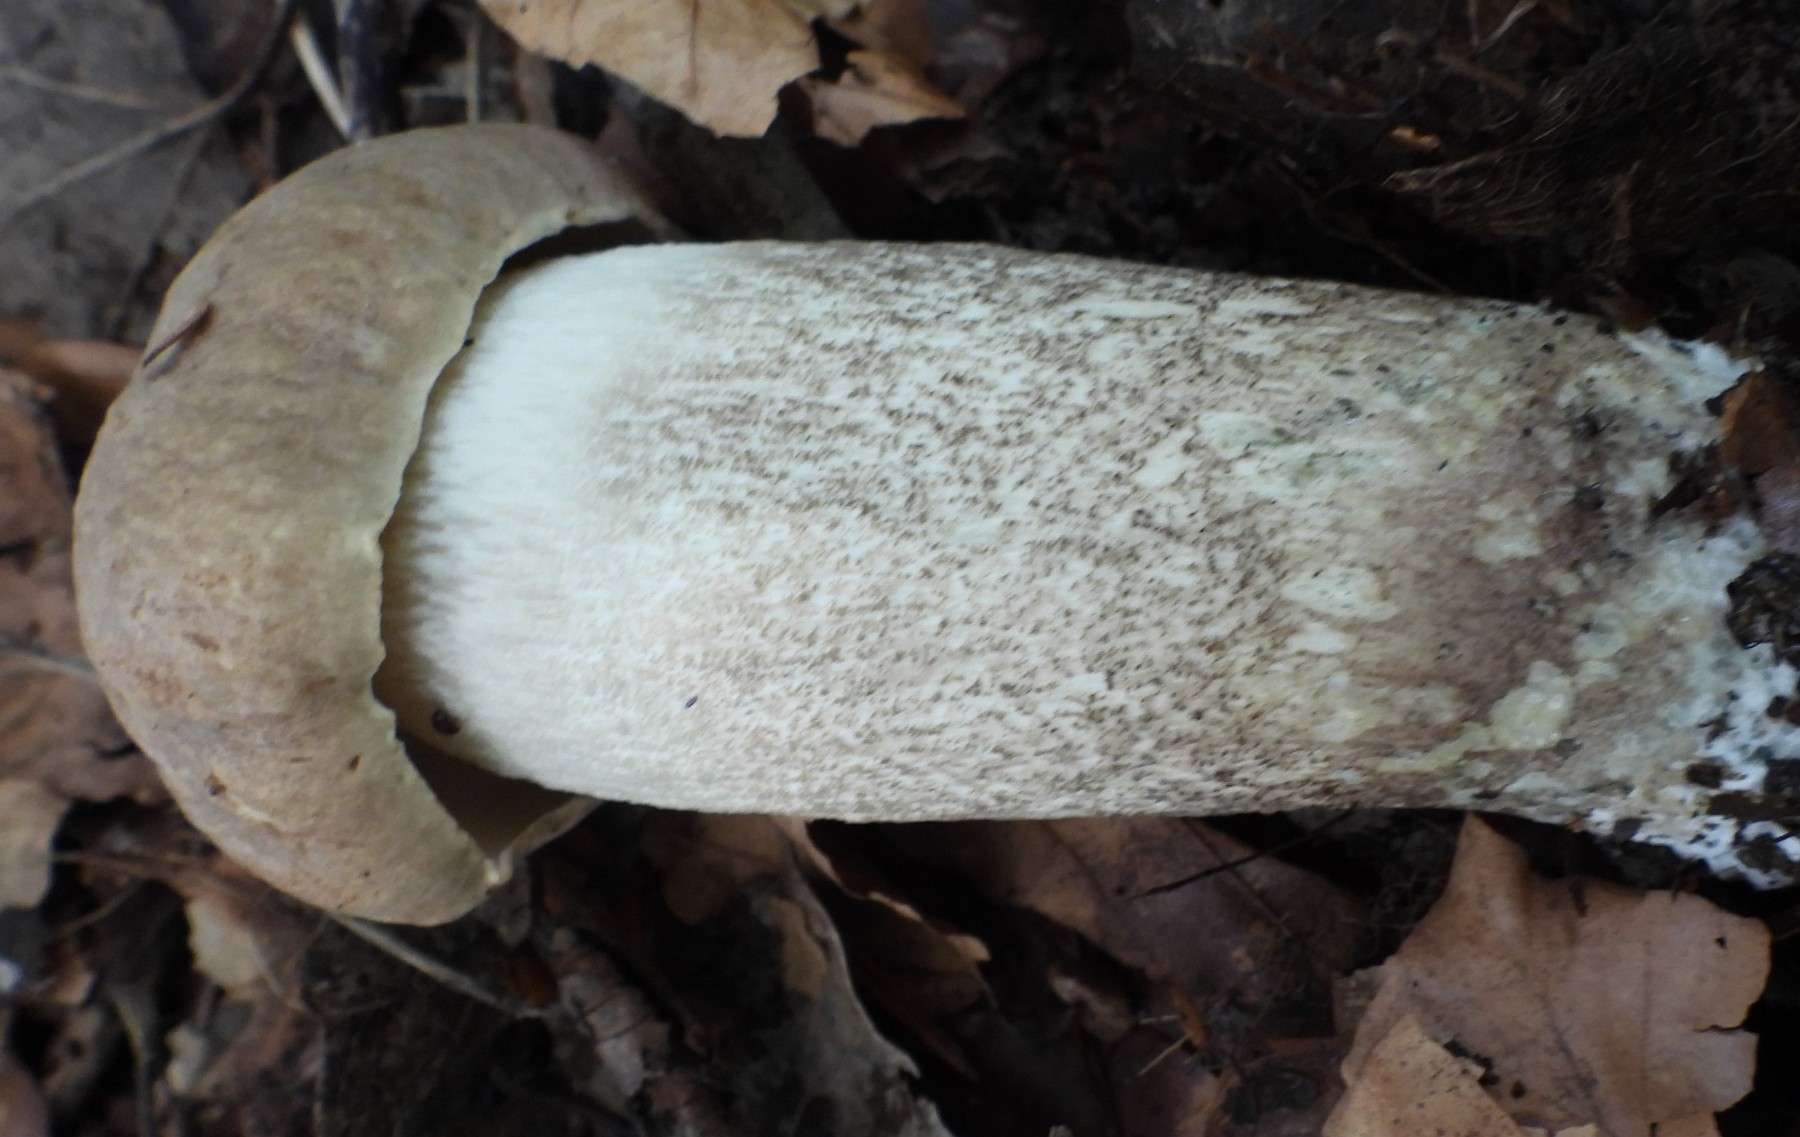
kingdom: Fungi
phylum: Basidiomycota
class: Agaricomycetes
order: Boletales
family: Boletaceae
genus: Leccinum
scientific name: Leccinum duriusculum
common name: poppel-skælrørhat
